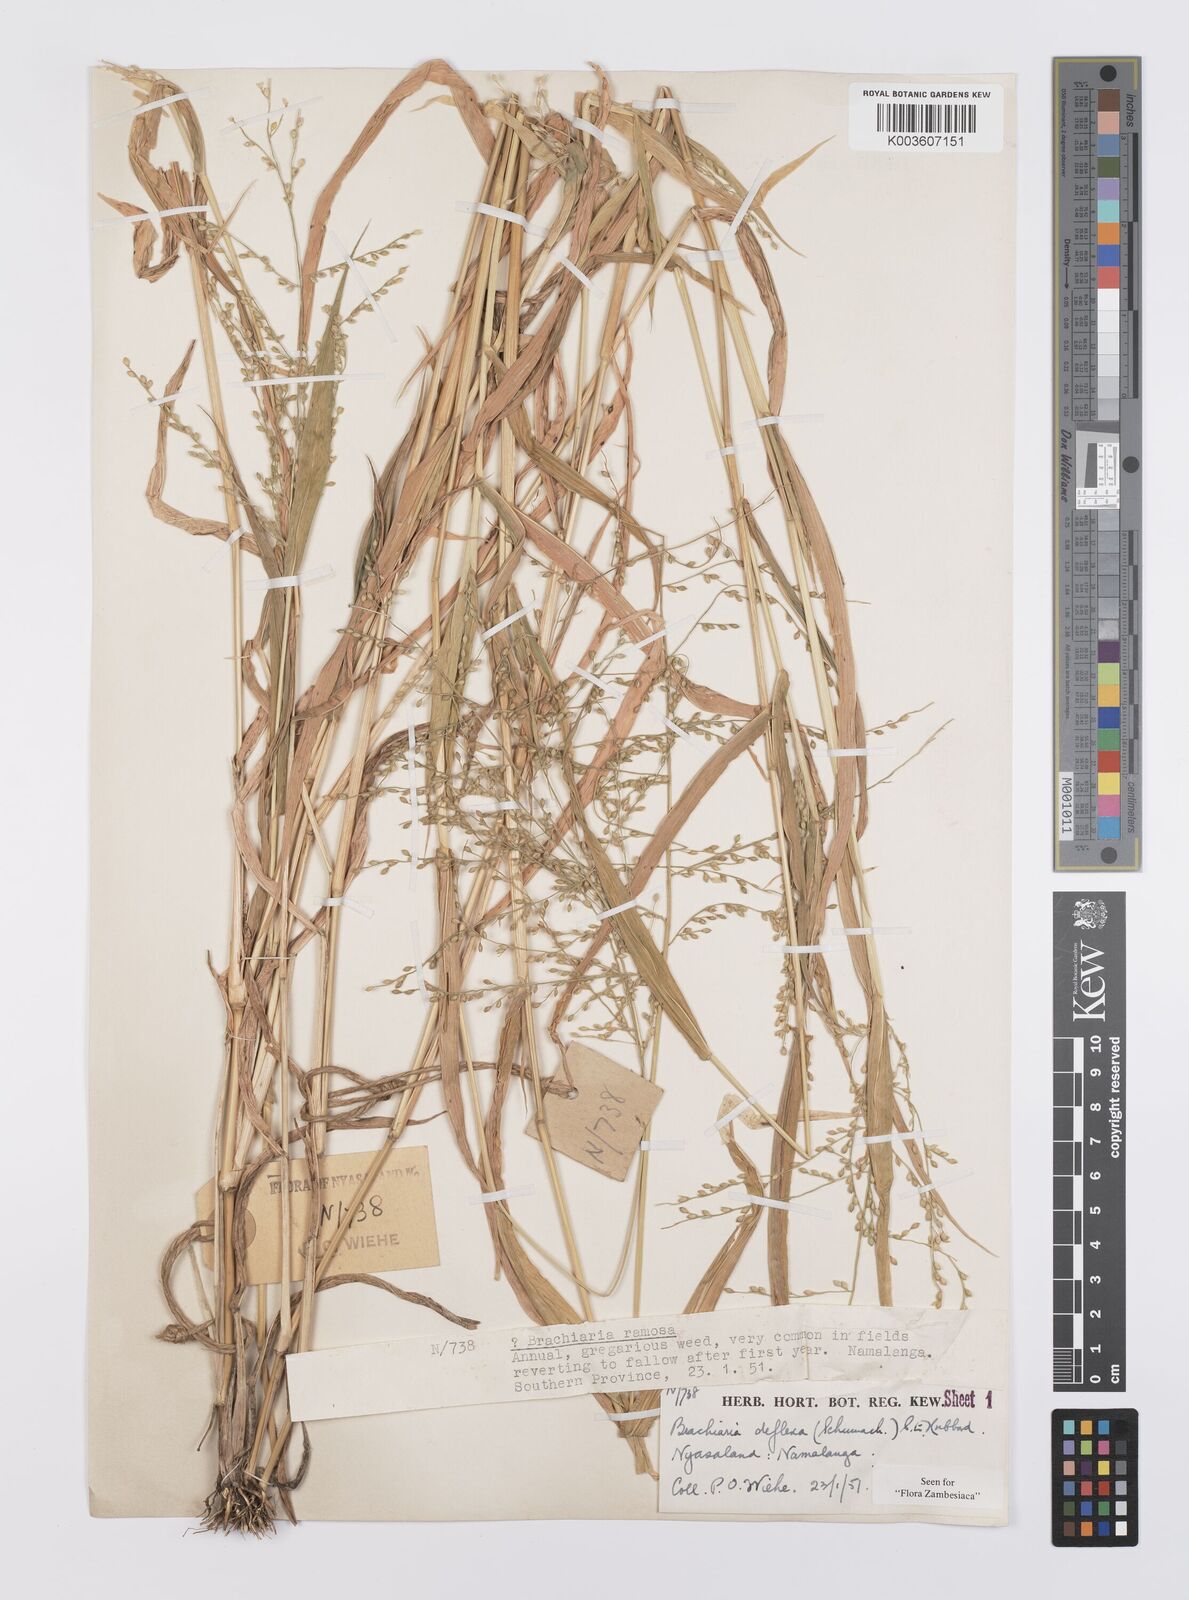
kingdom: Plantae
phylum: Tracheophyta
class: Liliopsida
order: Poales
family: Poaceae
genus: Urochloa
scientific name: Urochloa deflexa
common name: Guinea millet
